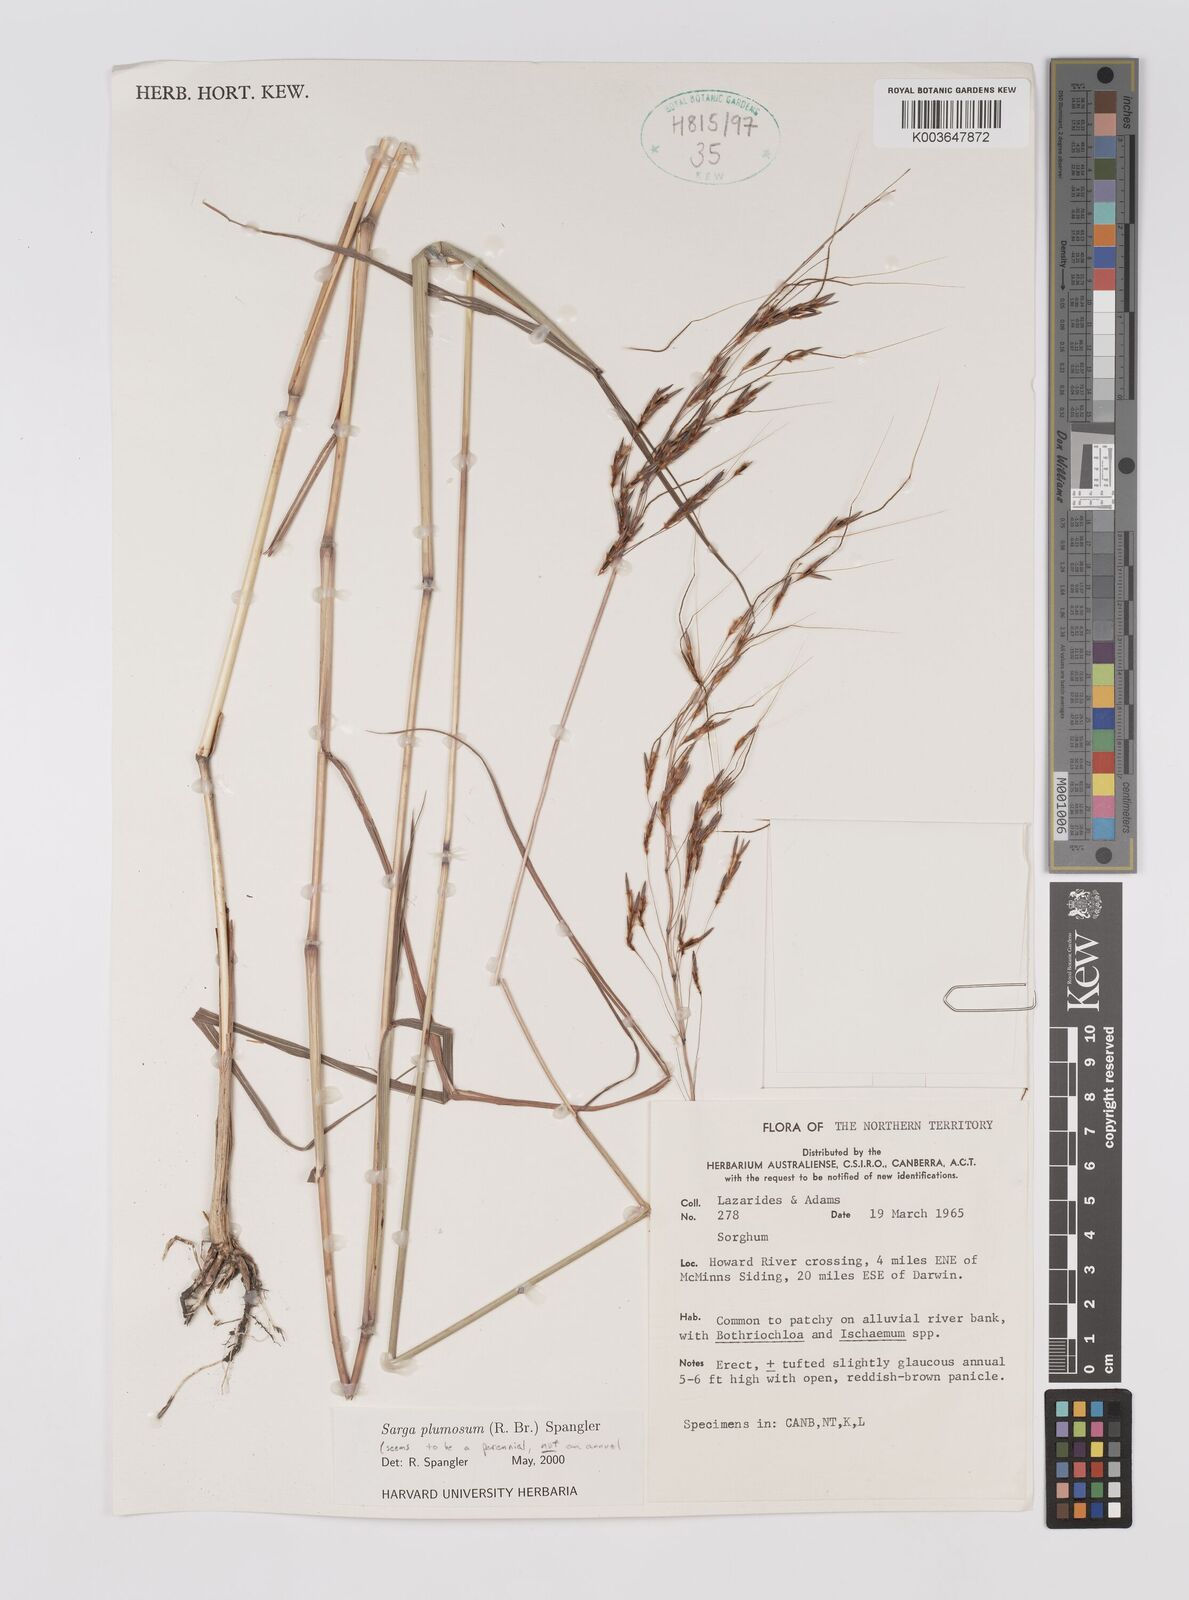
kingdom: Plantae
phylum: Tracheophyta
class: Liliopsida
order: Poales
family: Poaceae
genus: Sarga
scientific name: Sarga plumosa
